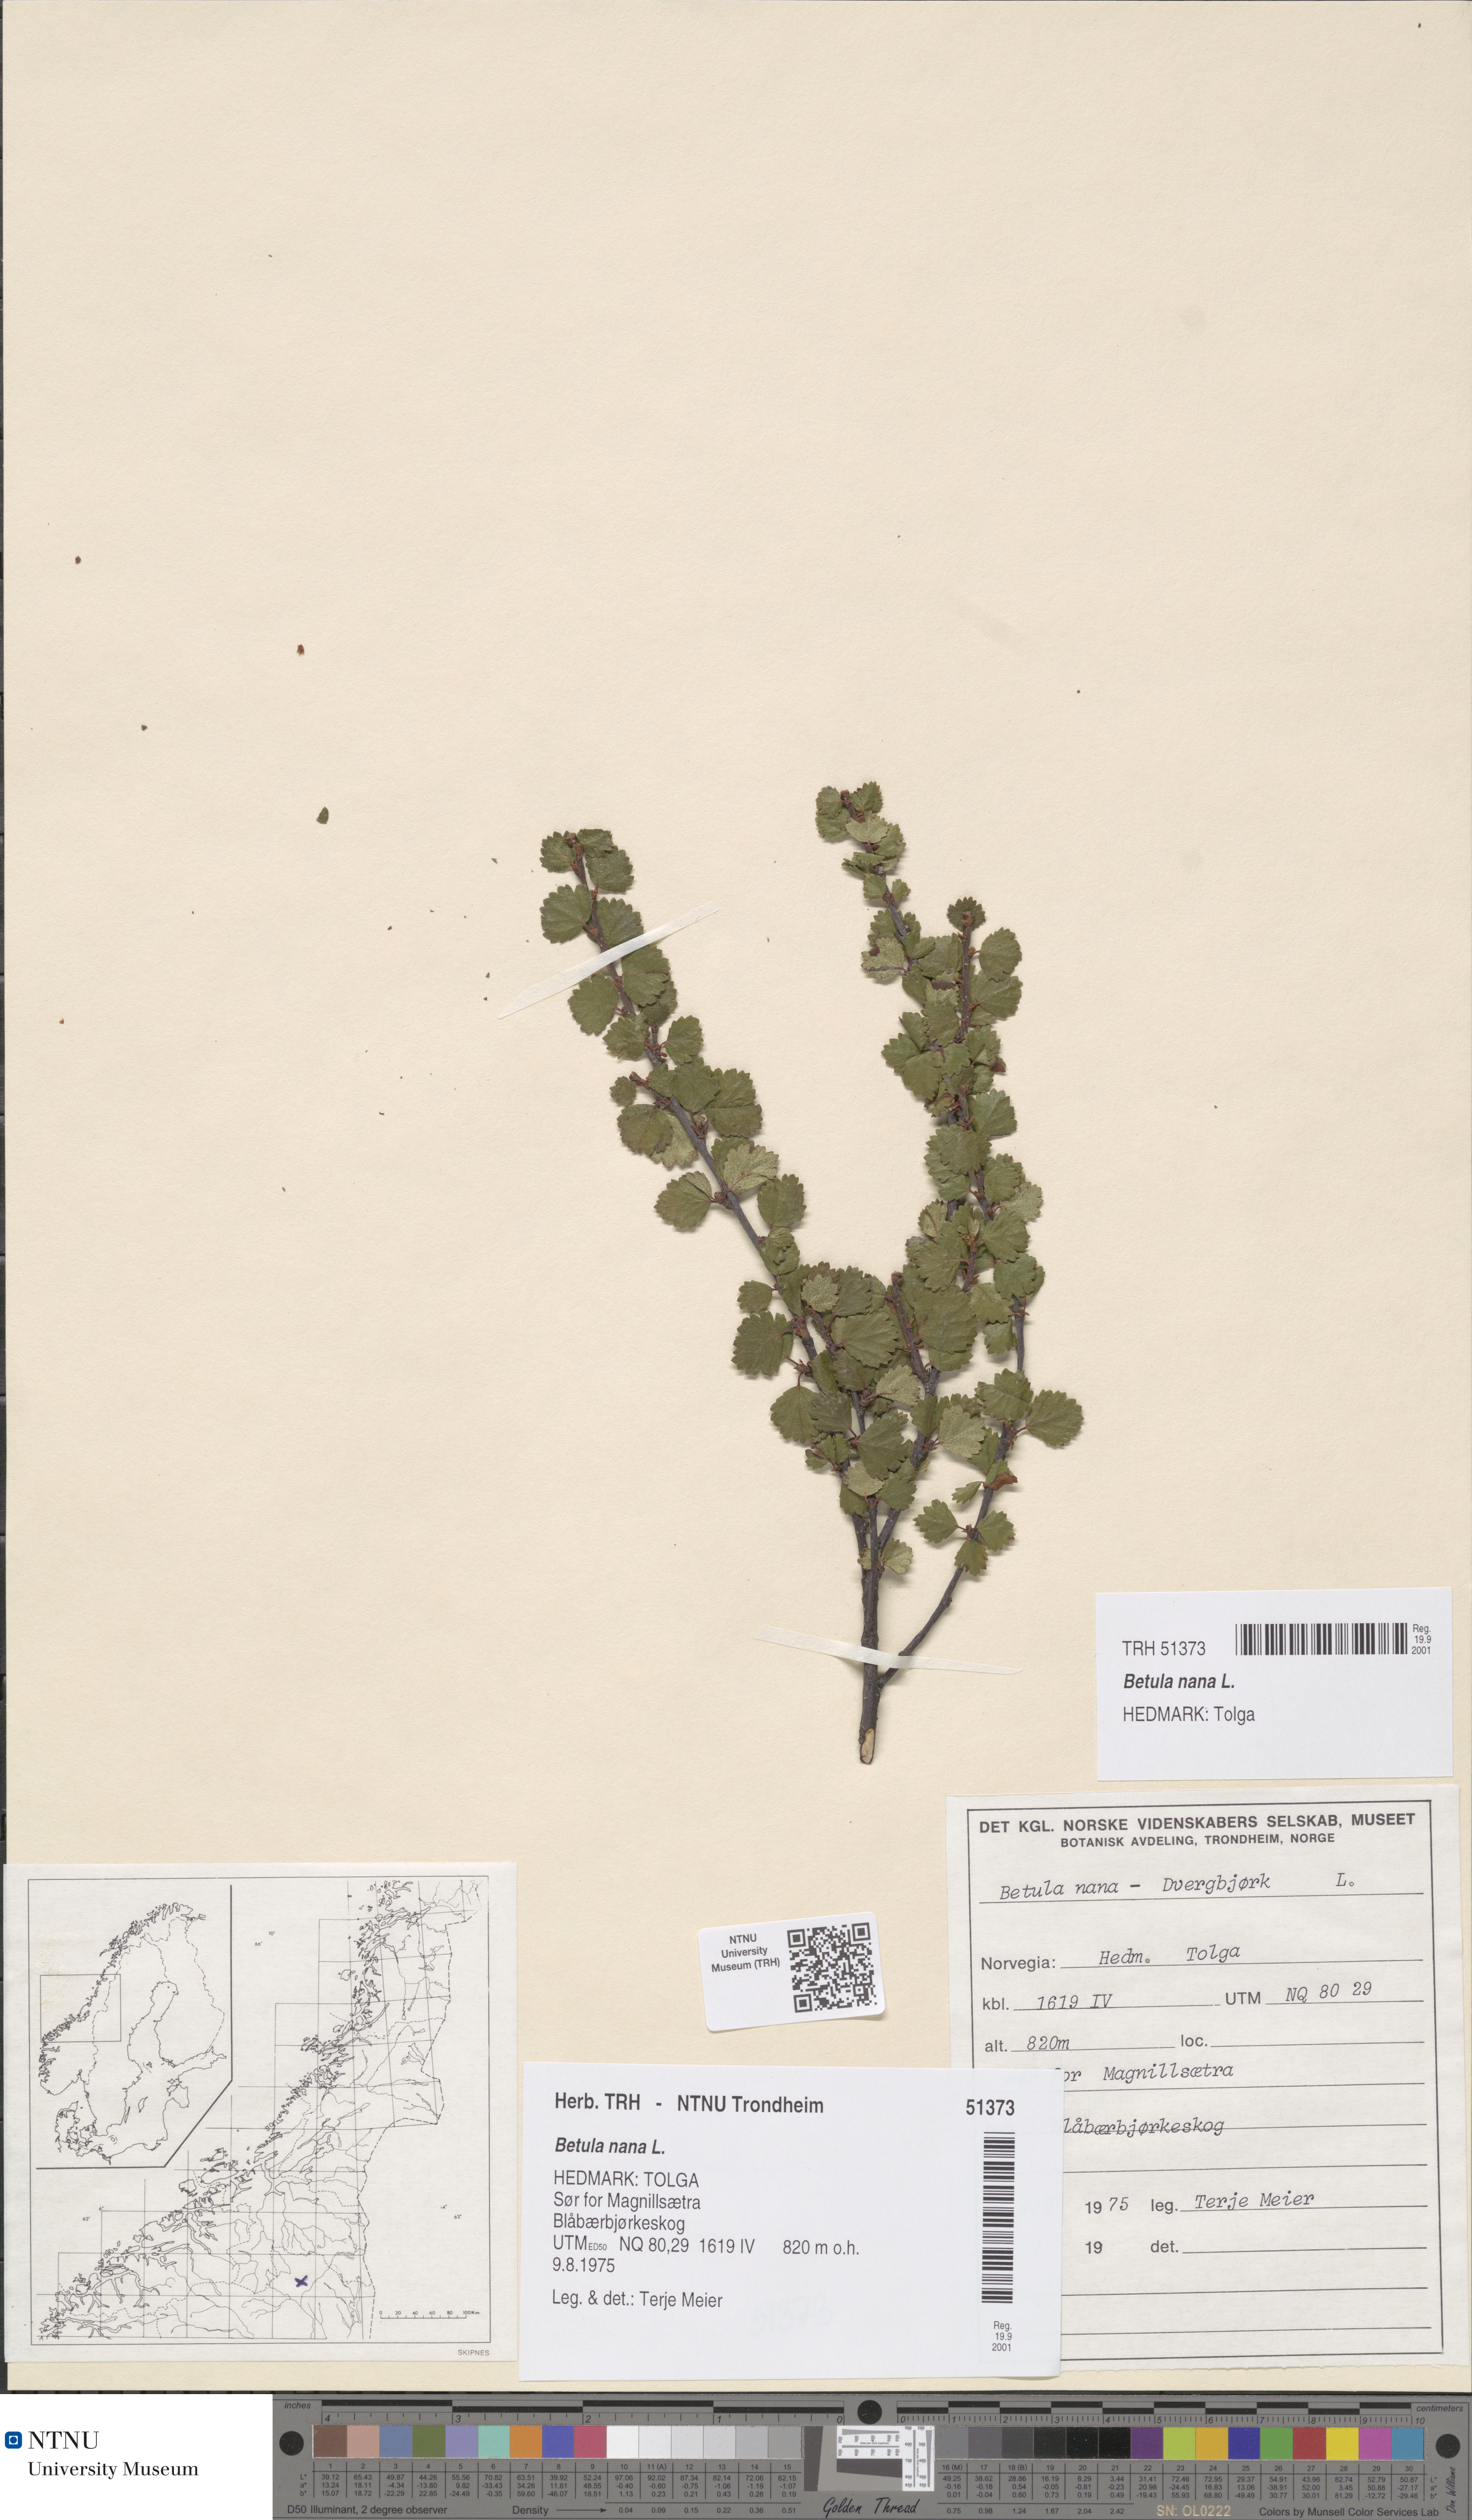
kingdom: Plantae
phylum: Tracheophyta
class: Magnoliopsida
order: Fagales
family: Betulaceae
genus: Betula
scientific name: Betula nana
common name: Arctic dwarf birch
